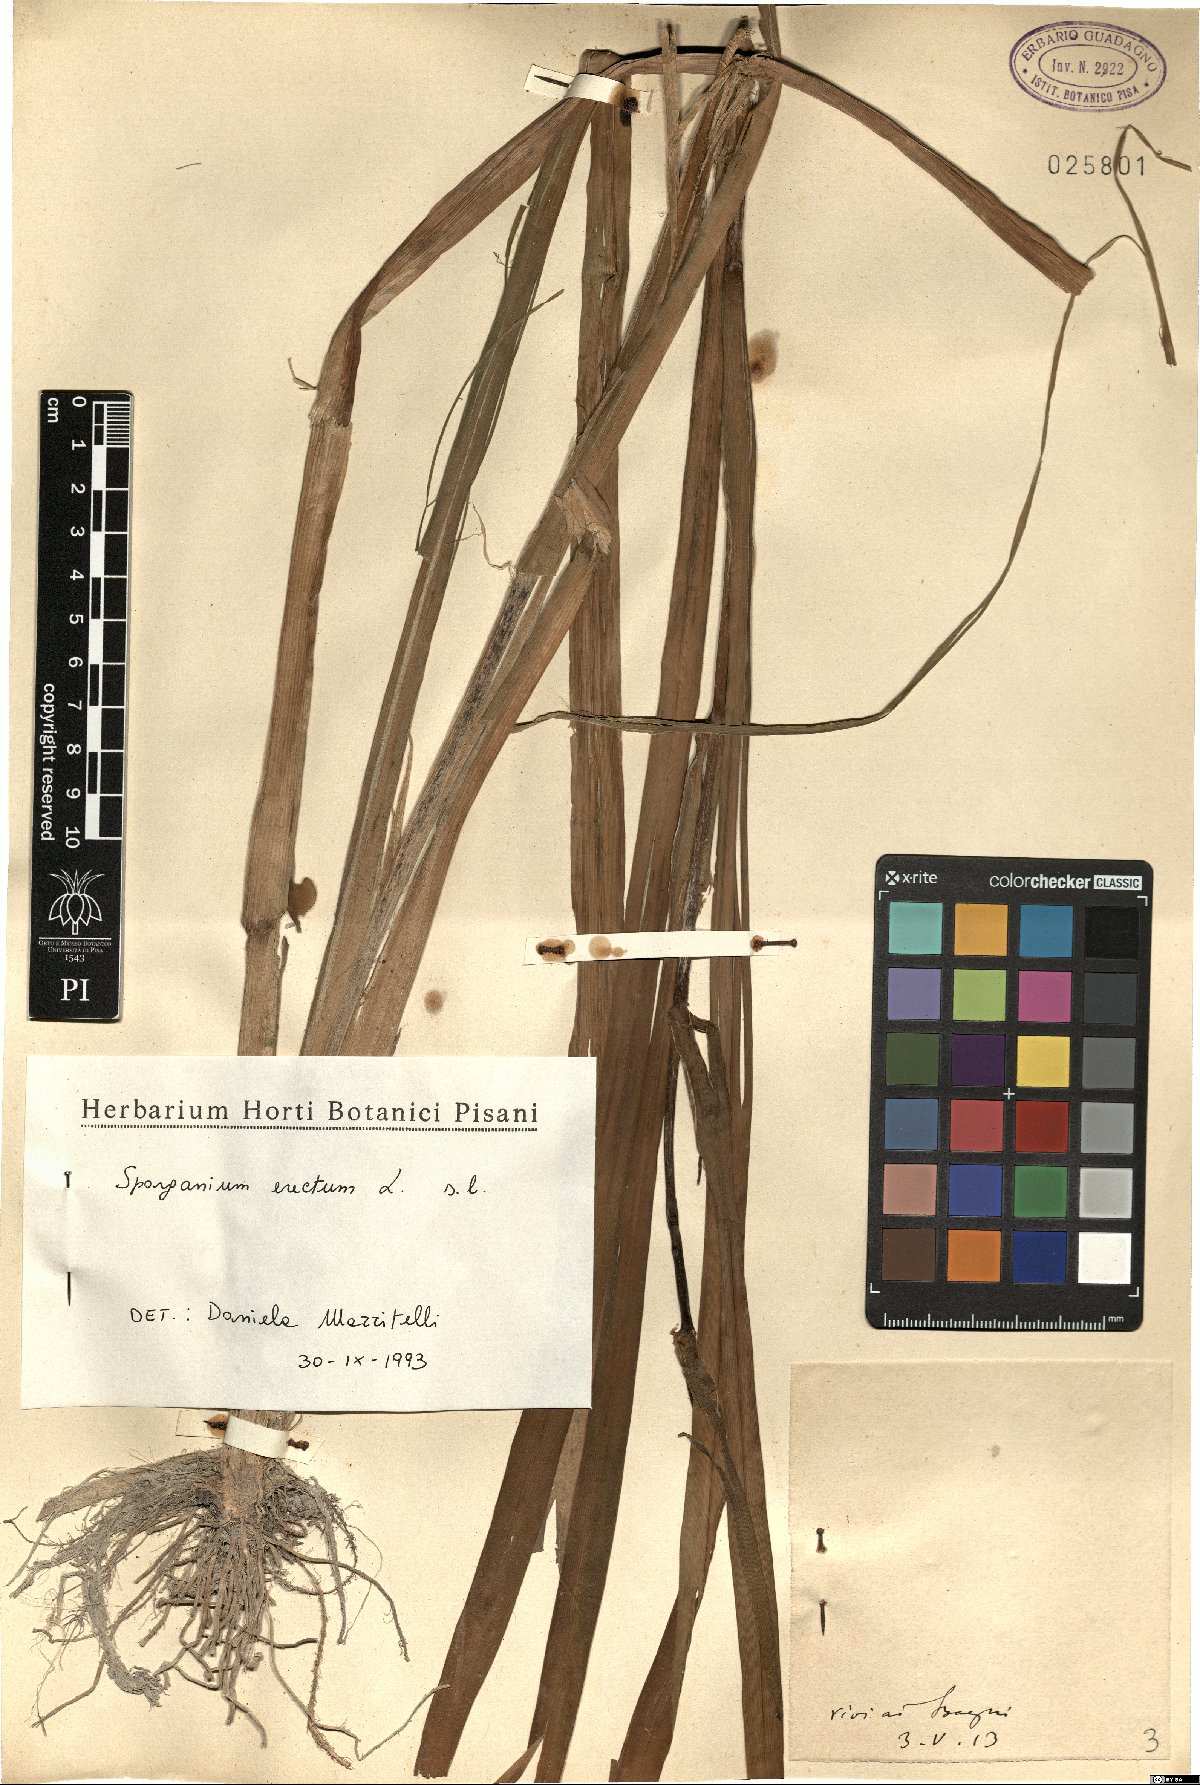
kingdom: Plantae
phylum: Tracheophyta
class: Liliopsida
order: Poales
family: Typhaceae
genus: Sparganium
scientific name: Sparganium erectum
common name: Branched bur-reed
